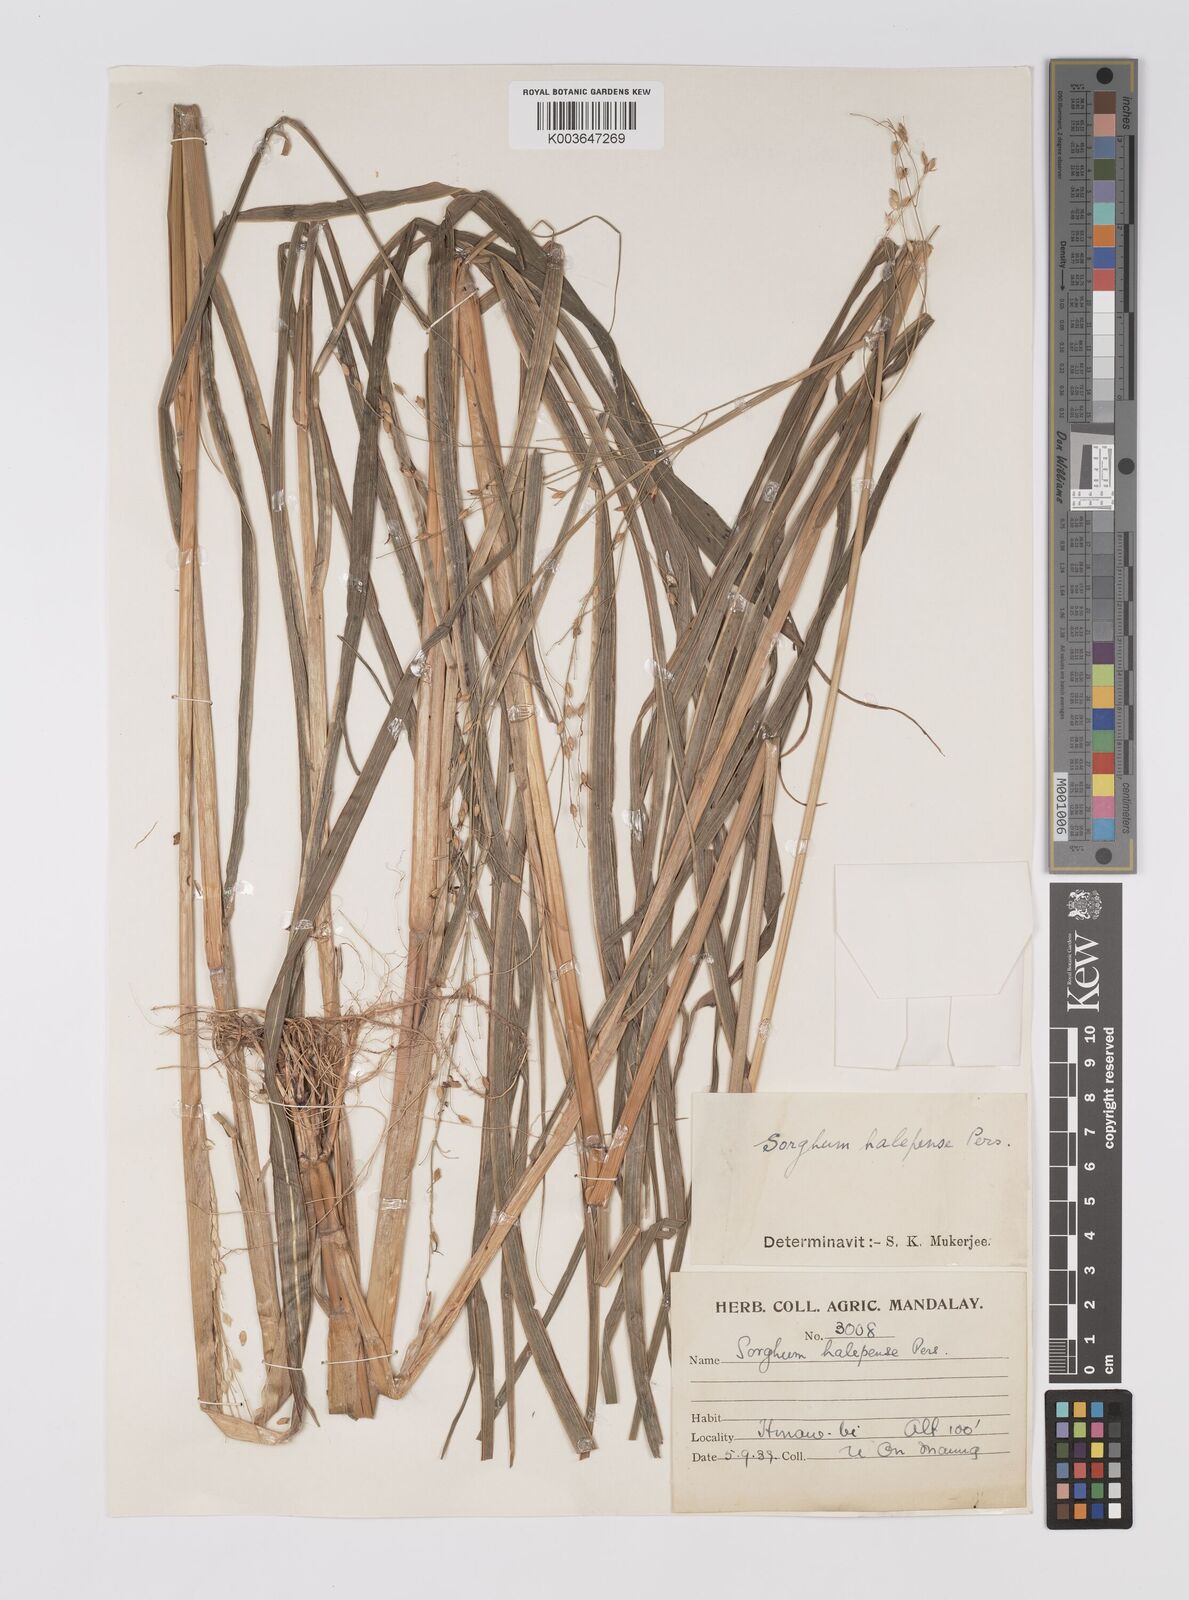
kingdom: Plantae
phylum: Tracheophyta
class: Liliopsida
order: Poales
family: Poaceae
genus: Sorghum
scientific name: Sorghum halepense
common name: Johnson-grass
